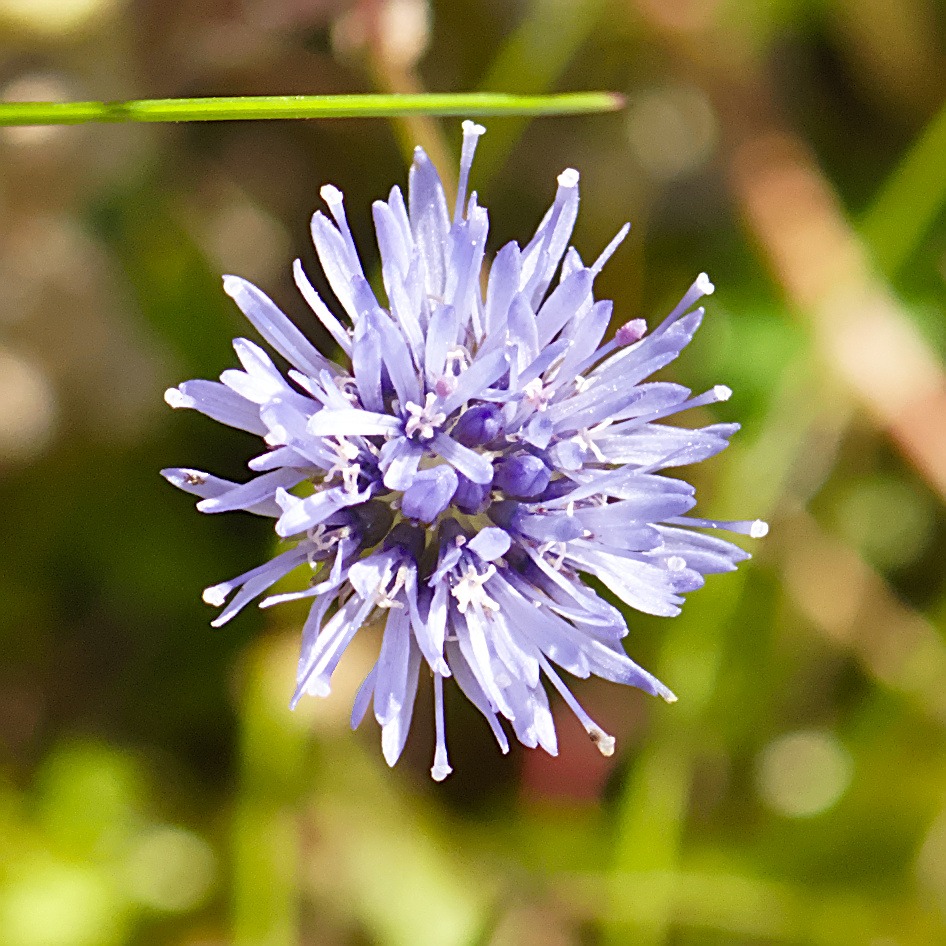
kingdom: Plantae
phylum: Tracheophyta
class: Magnoliopsida
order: Asterales
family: Campanulaceae
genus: Jasione
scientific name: Jasione montana
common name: Blåmunke
